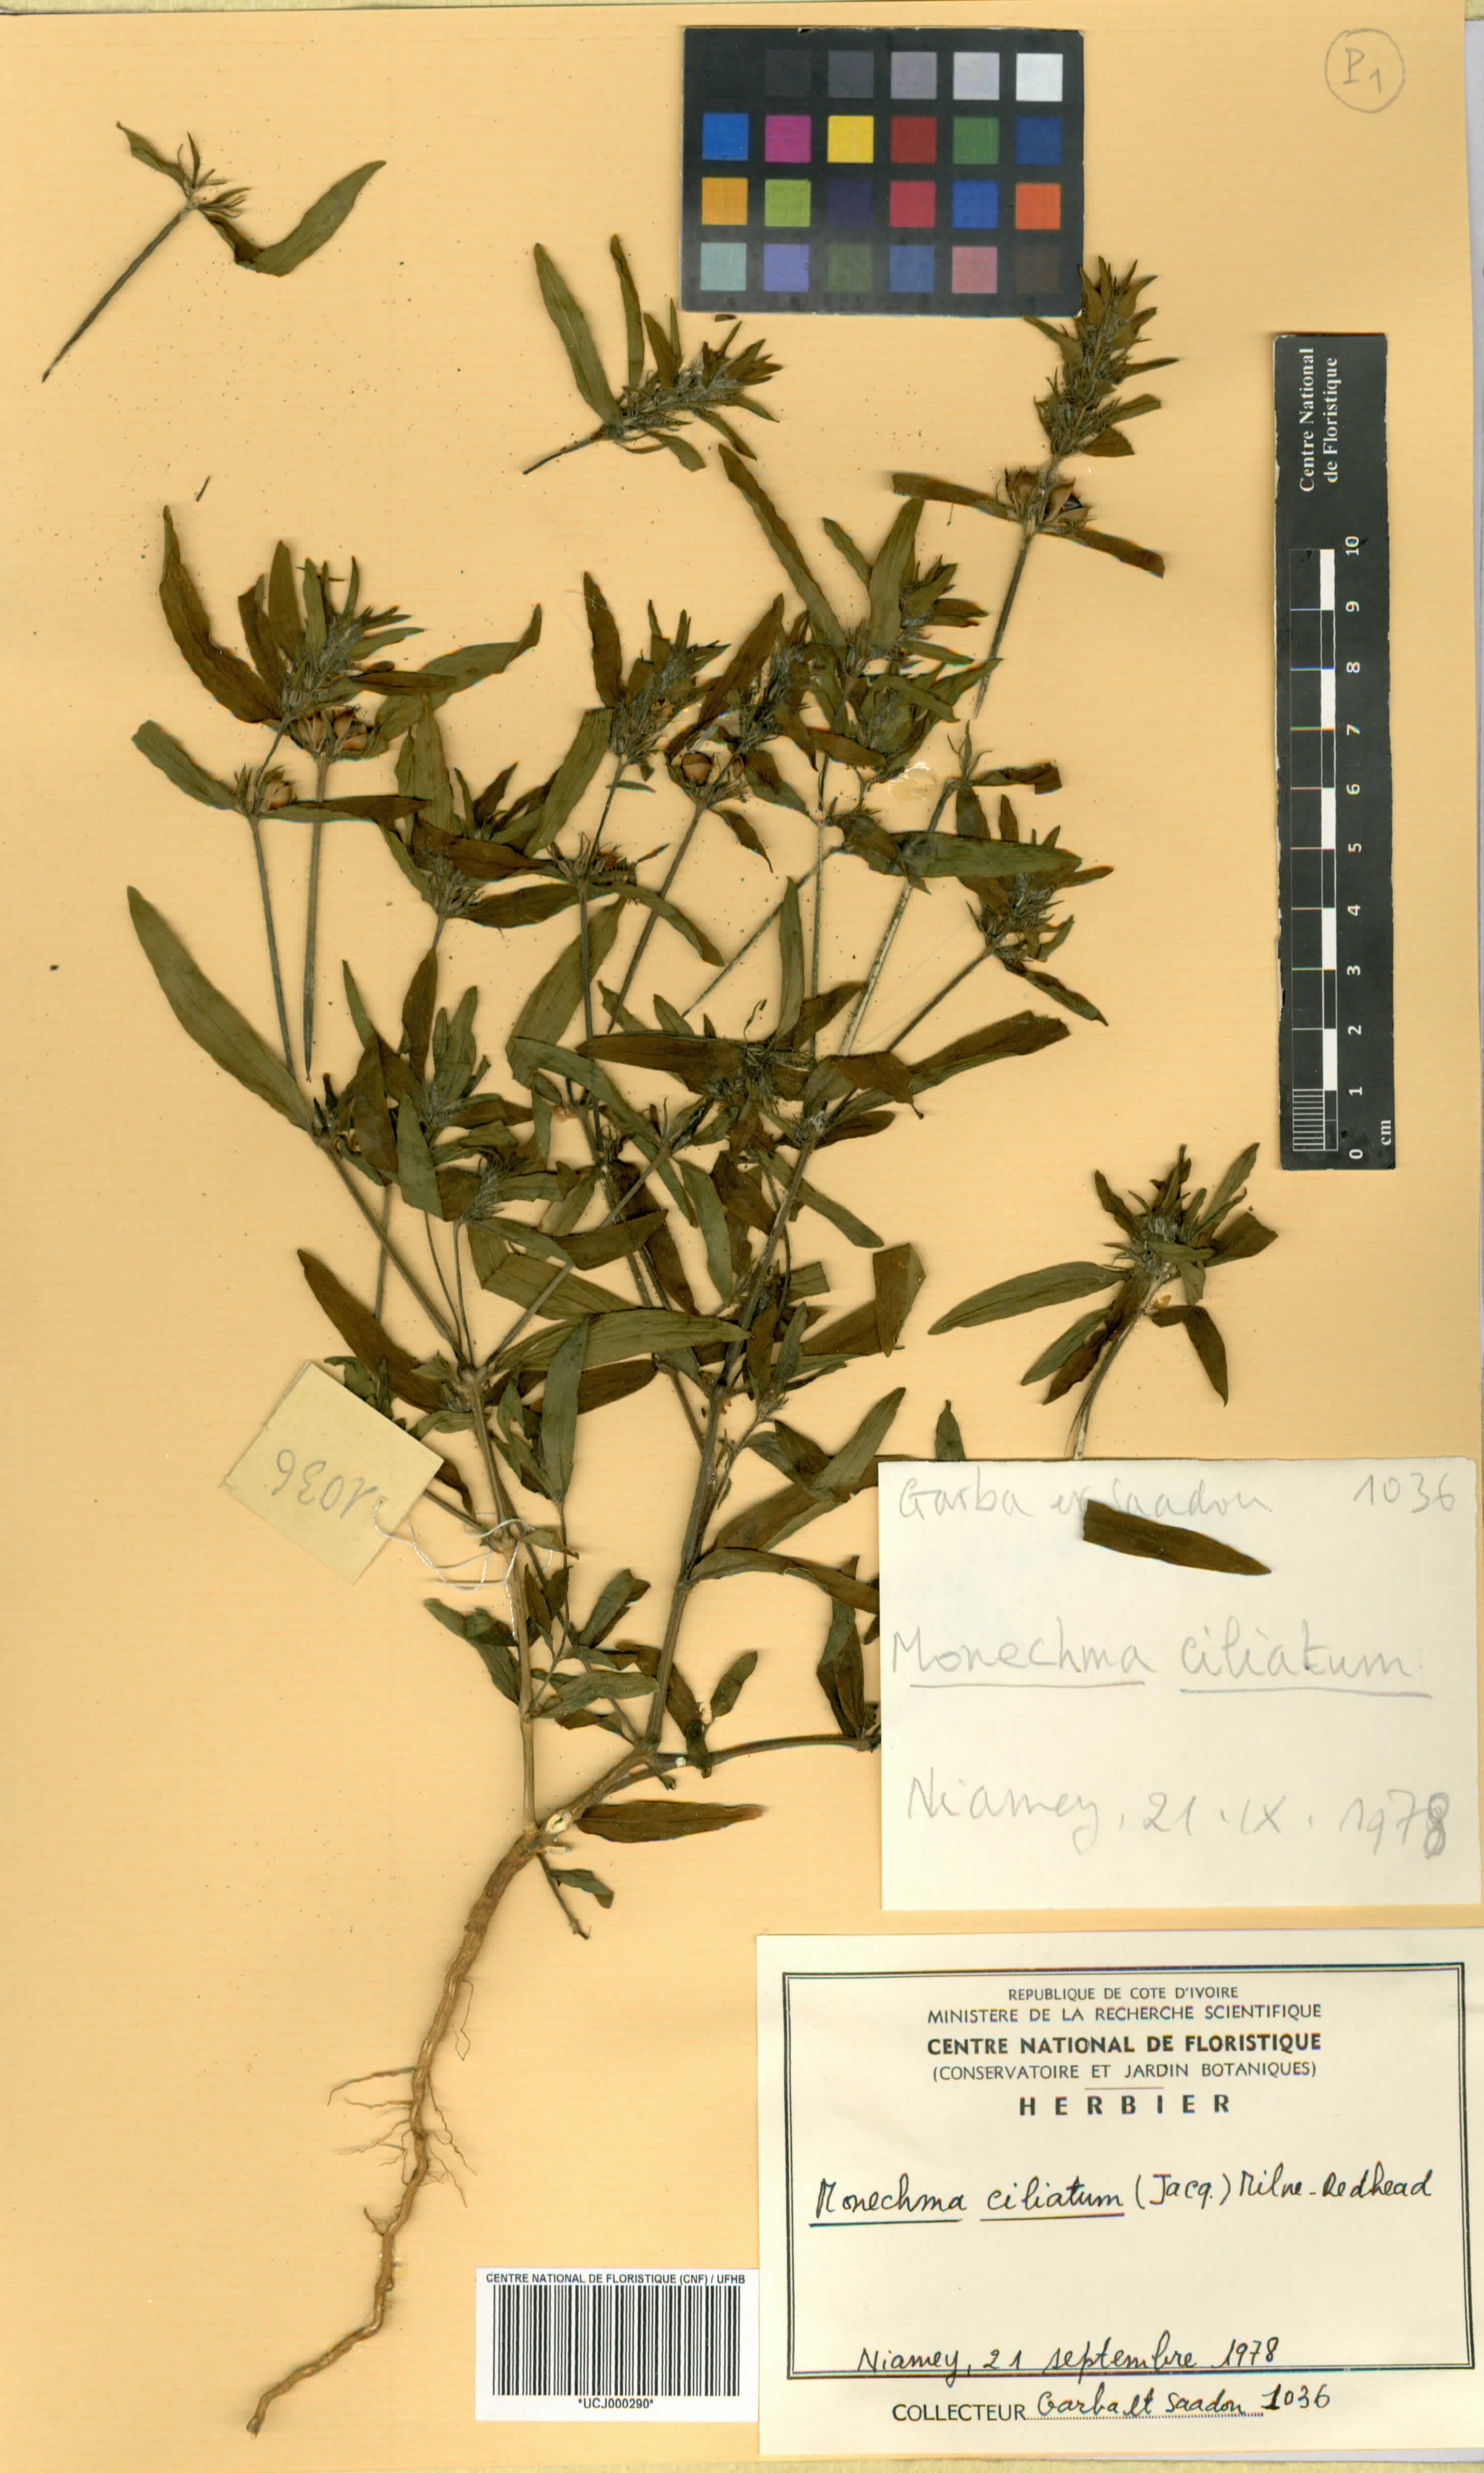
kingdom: Plantae
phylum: Tracheophyta
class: Magnoliopsida
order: Lamiales
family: Acanthaceae
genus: Monechma
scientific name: Monechma
